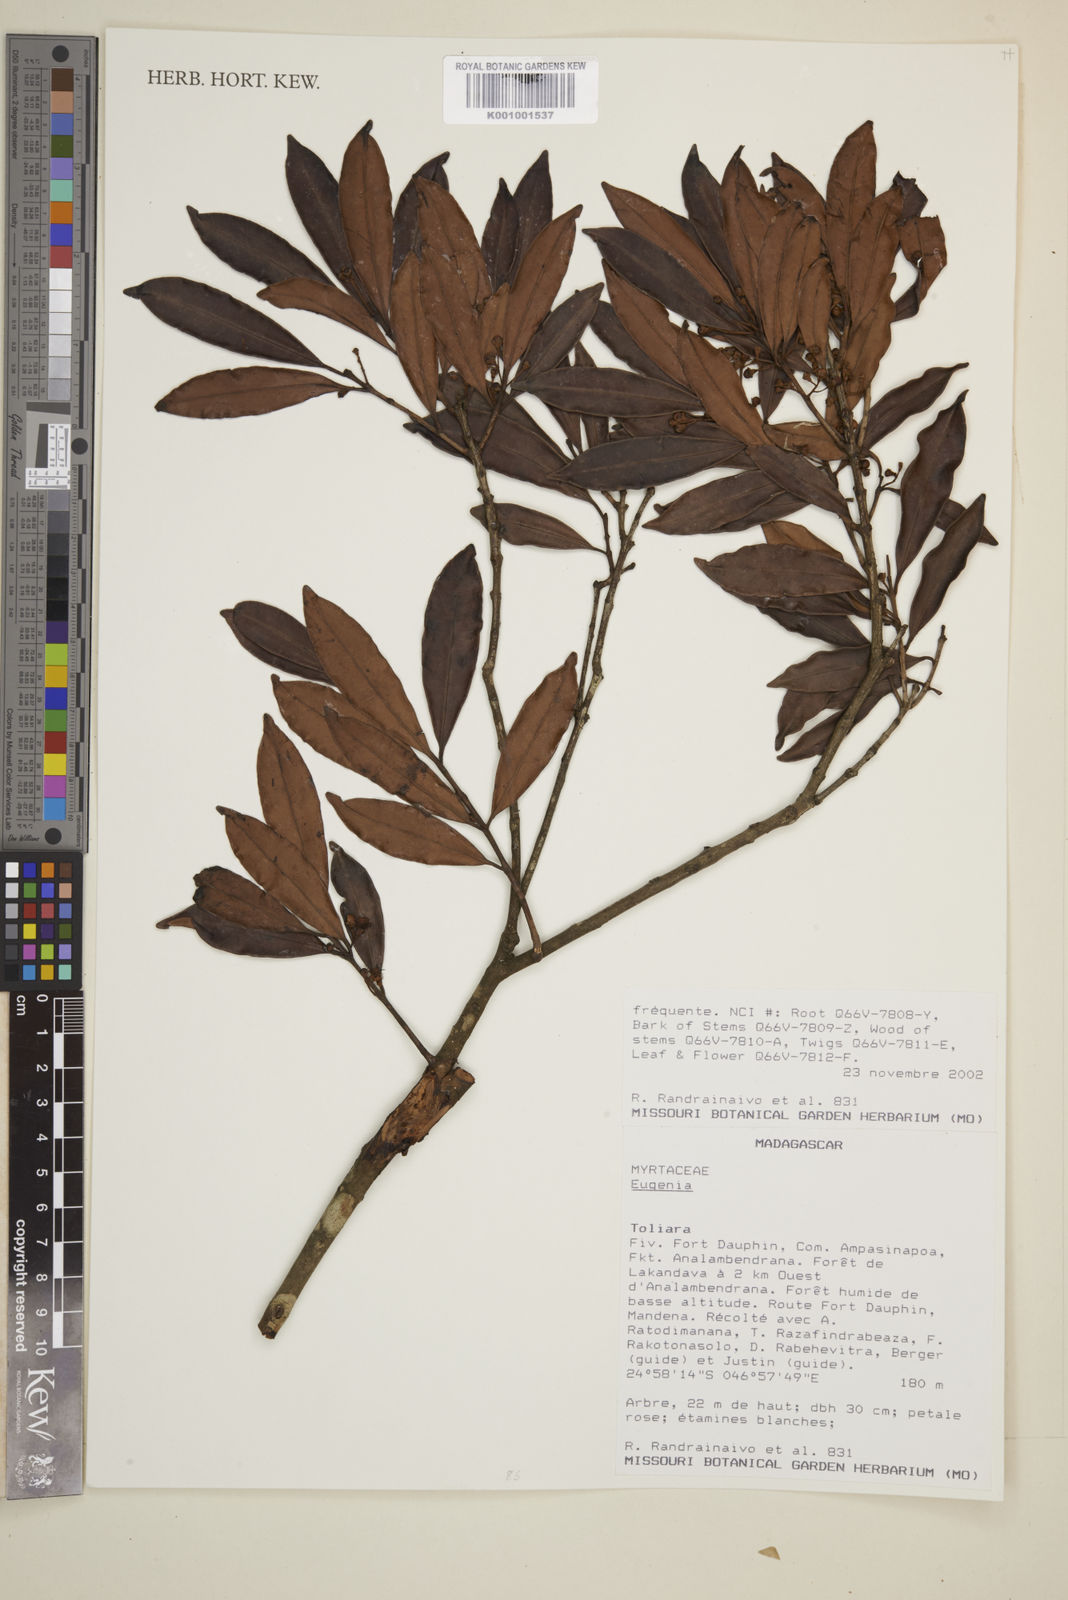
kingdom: Plantae
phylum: Tracheophyta
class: Magnoliopsida
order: Myrtales
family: Myrtaceae
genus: Eugenia
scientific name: Eugenia
